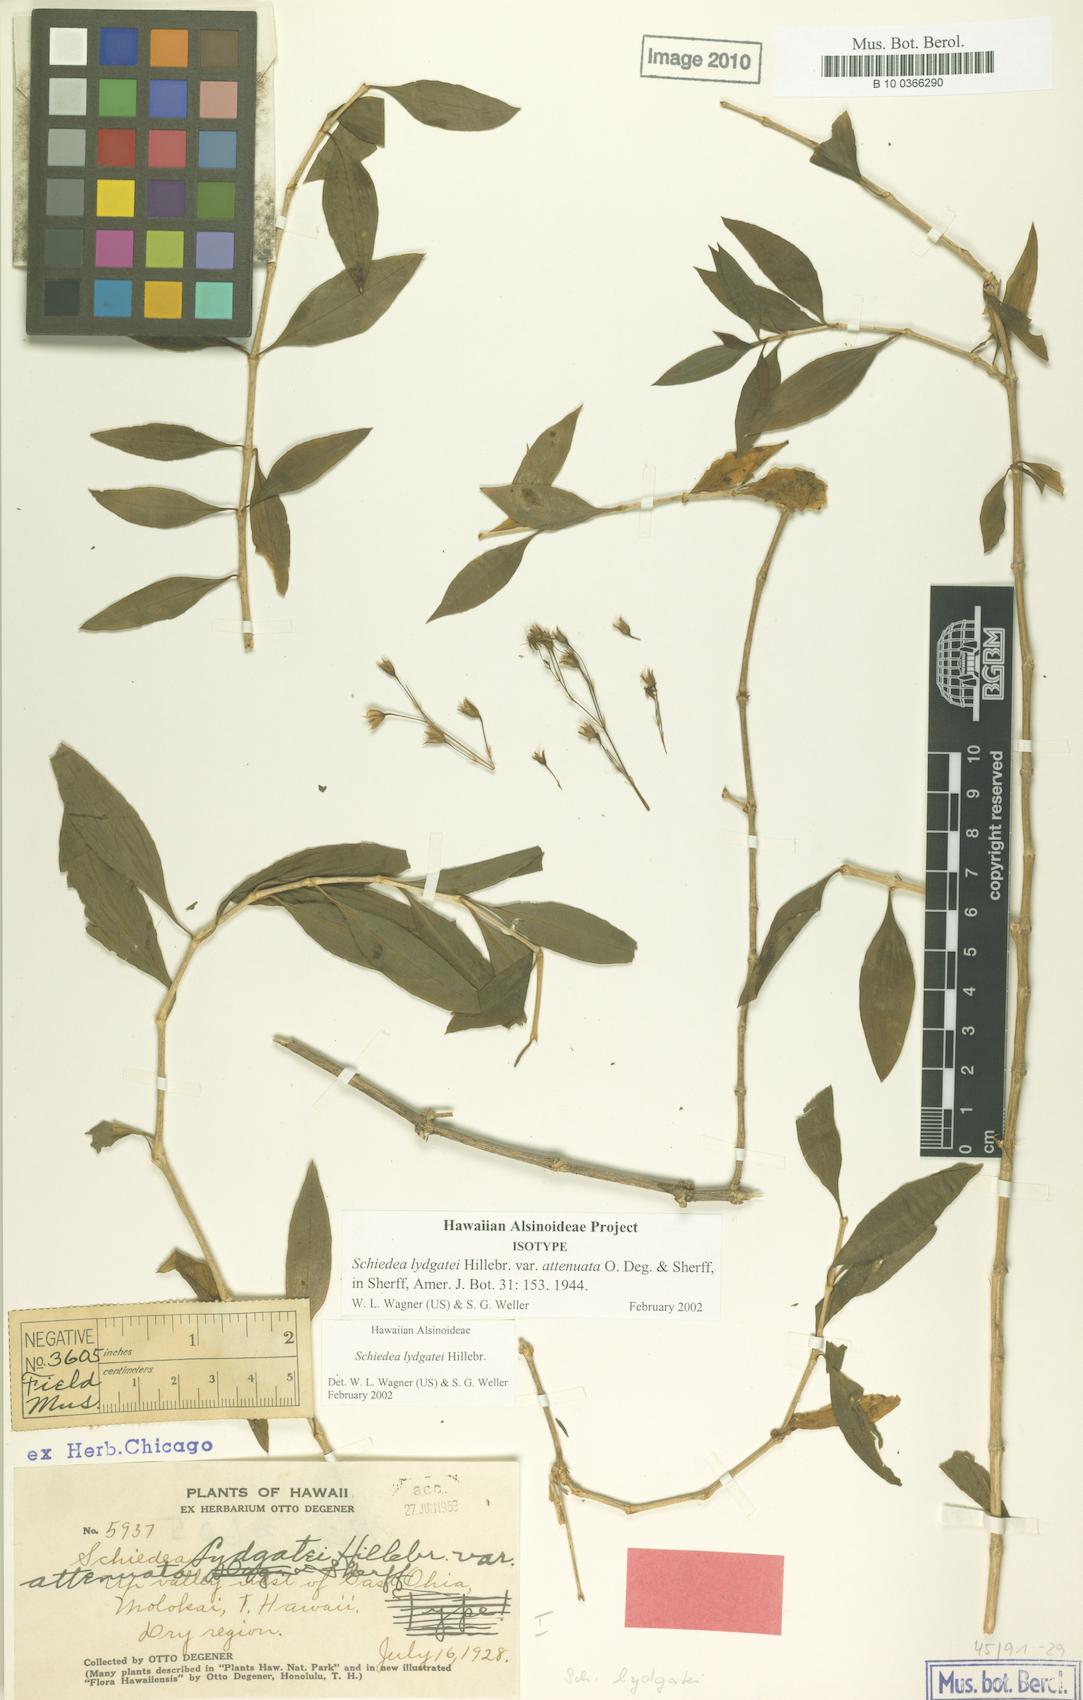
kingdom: Plantae
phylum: Tracheophyta
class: Magnoliopsida
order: Caryophyllales
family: Caryophyllaceae
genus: Schiedea
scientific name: Schiedea lydgatei
